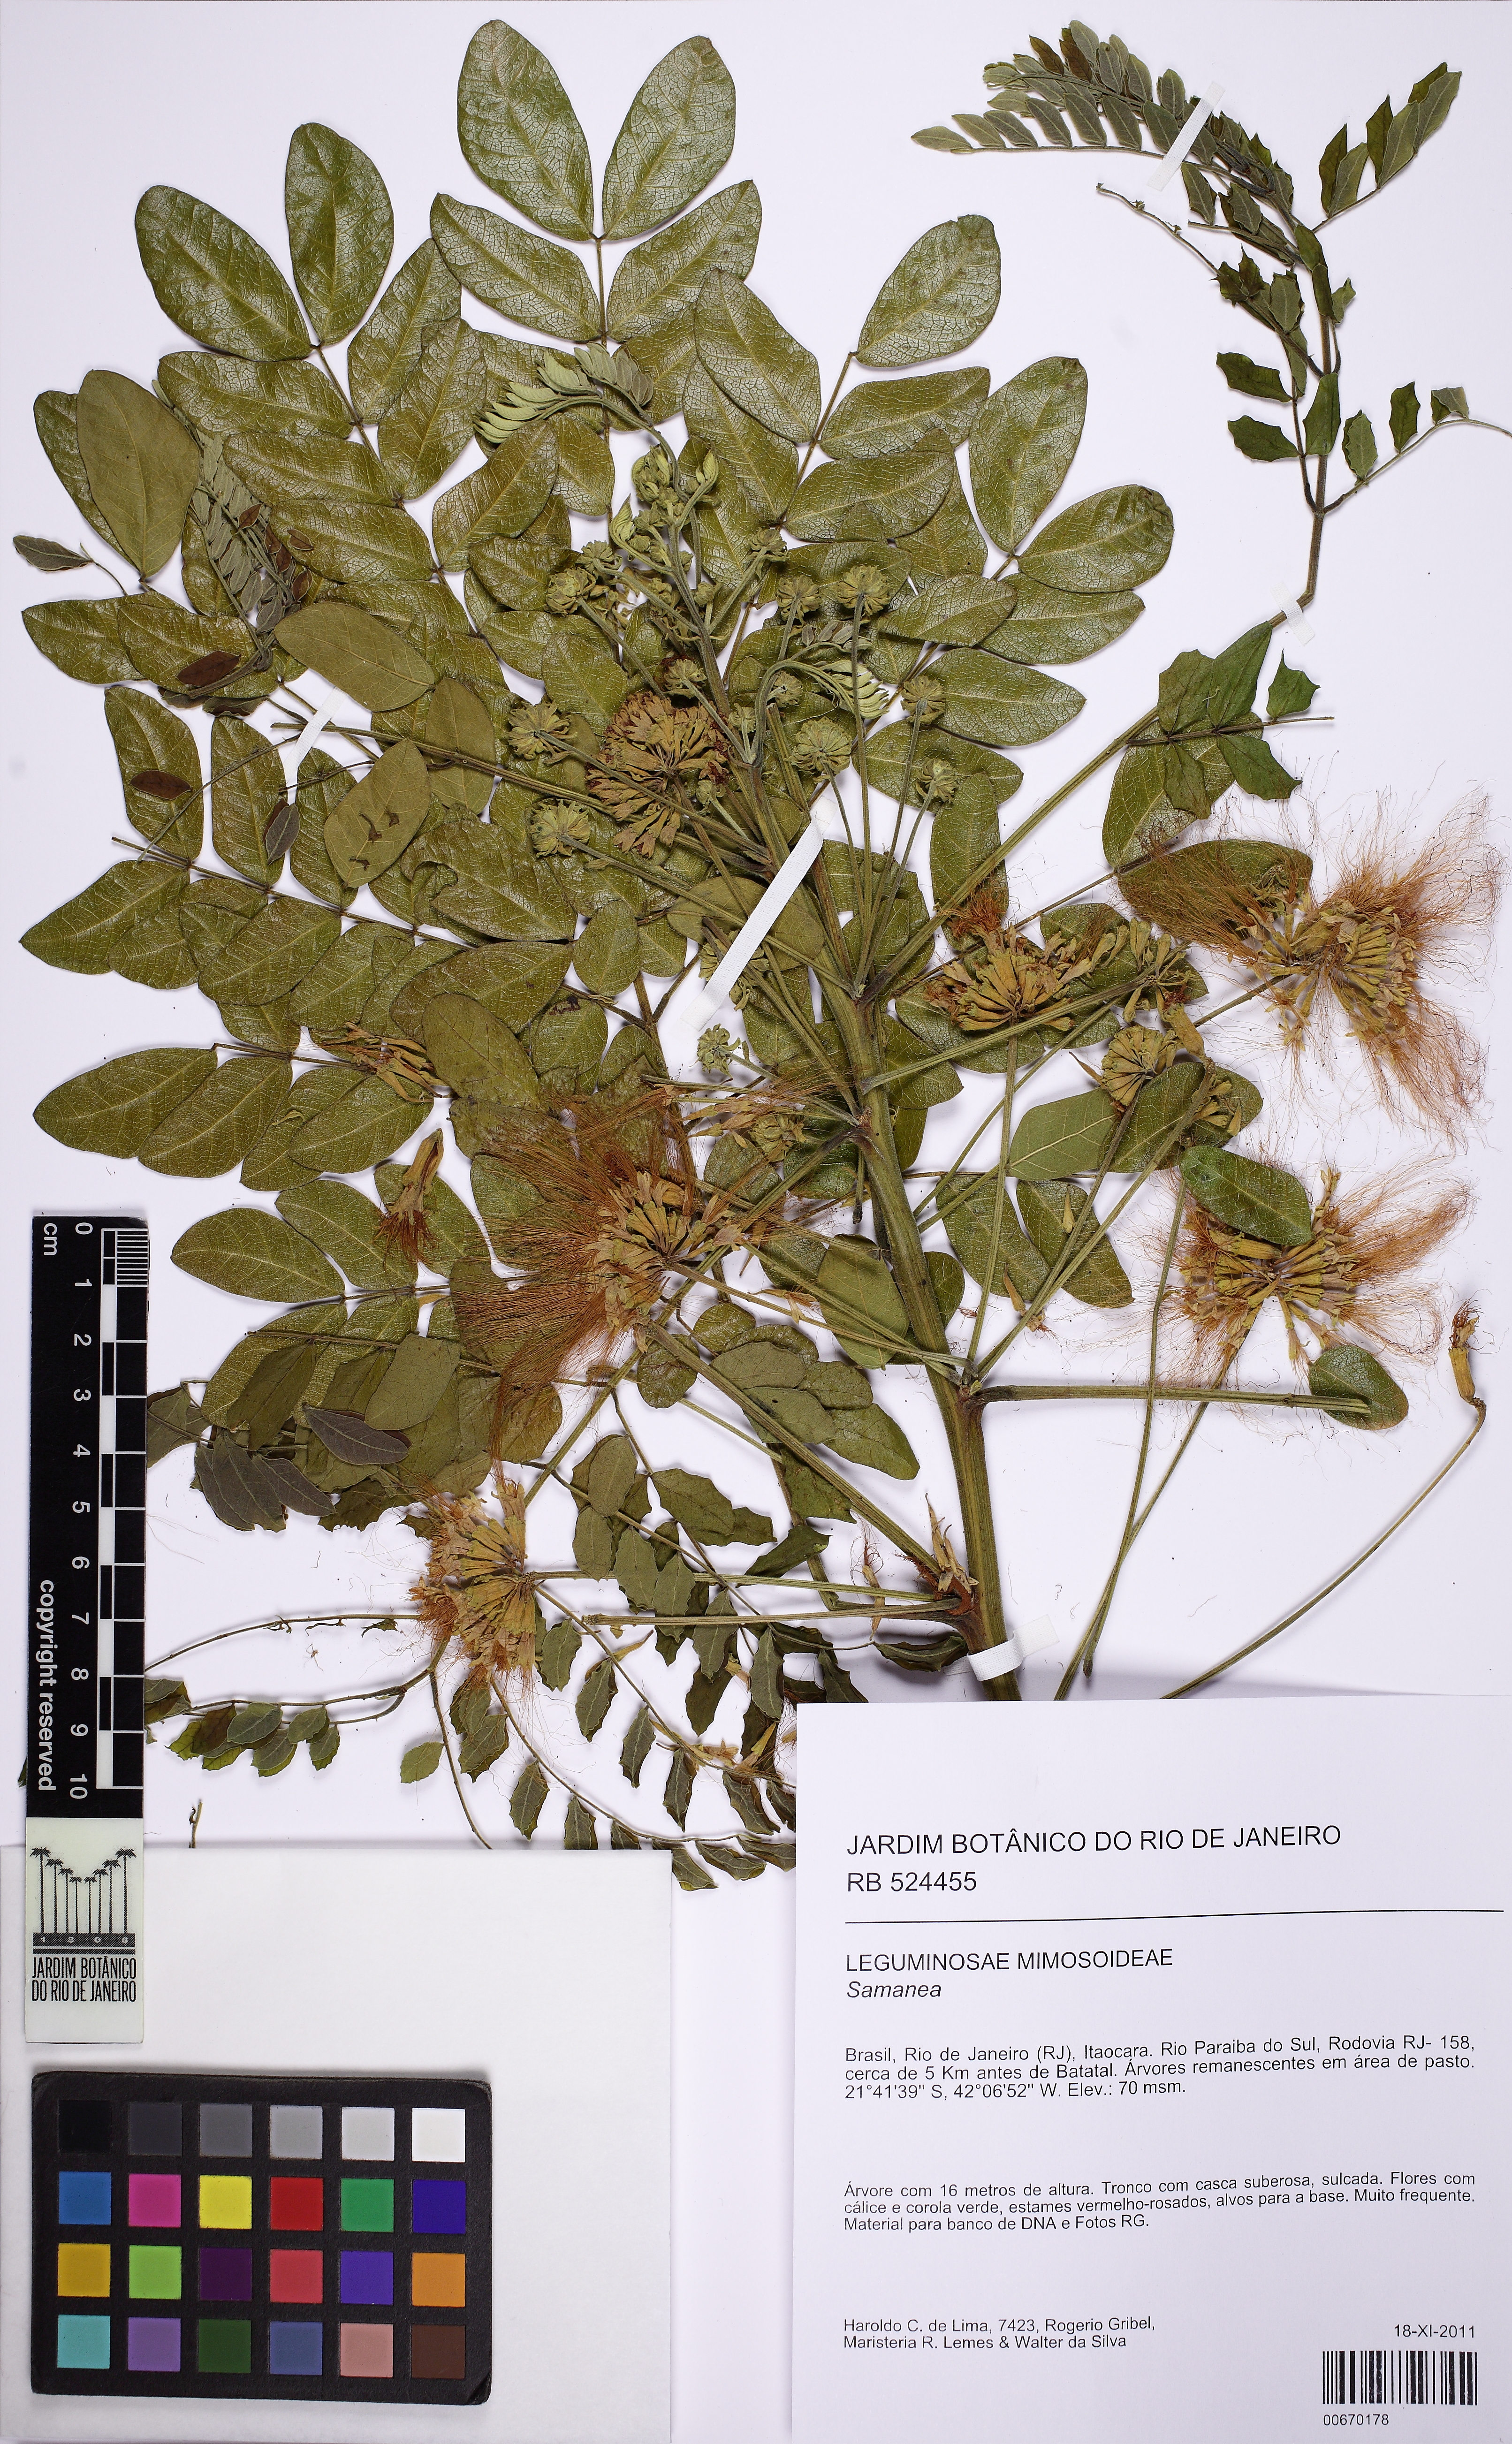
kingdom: Plantae
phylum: Tracheophyta
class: Magnoliopsida
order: Fabales
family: Fabaceae
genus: Samanea
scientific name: Samanea
